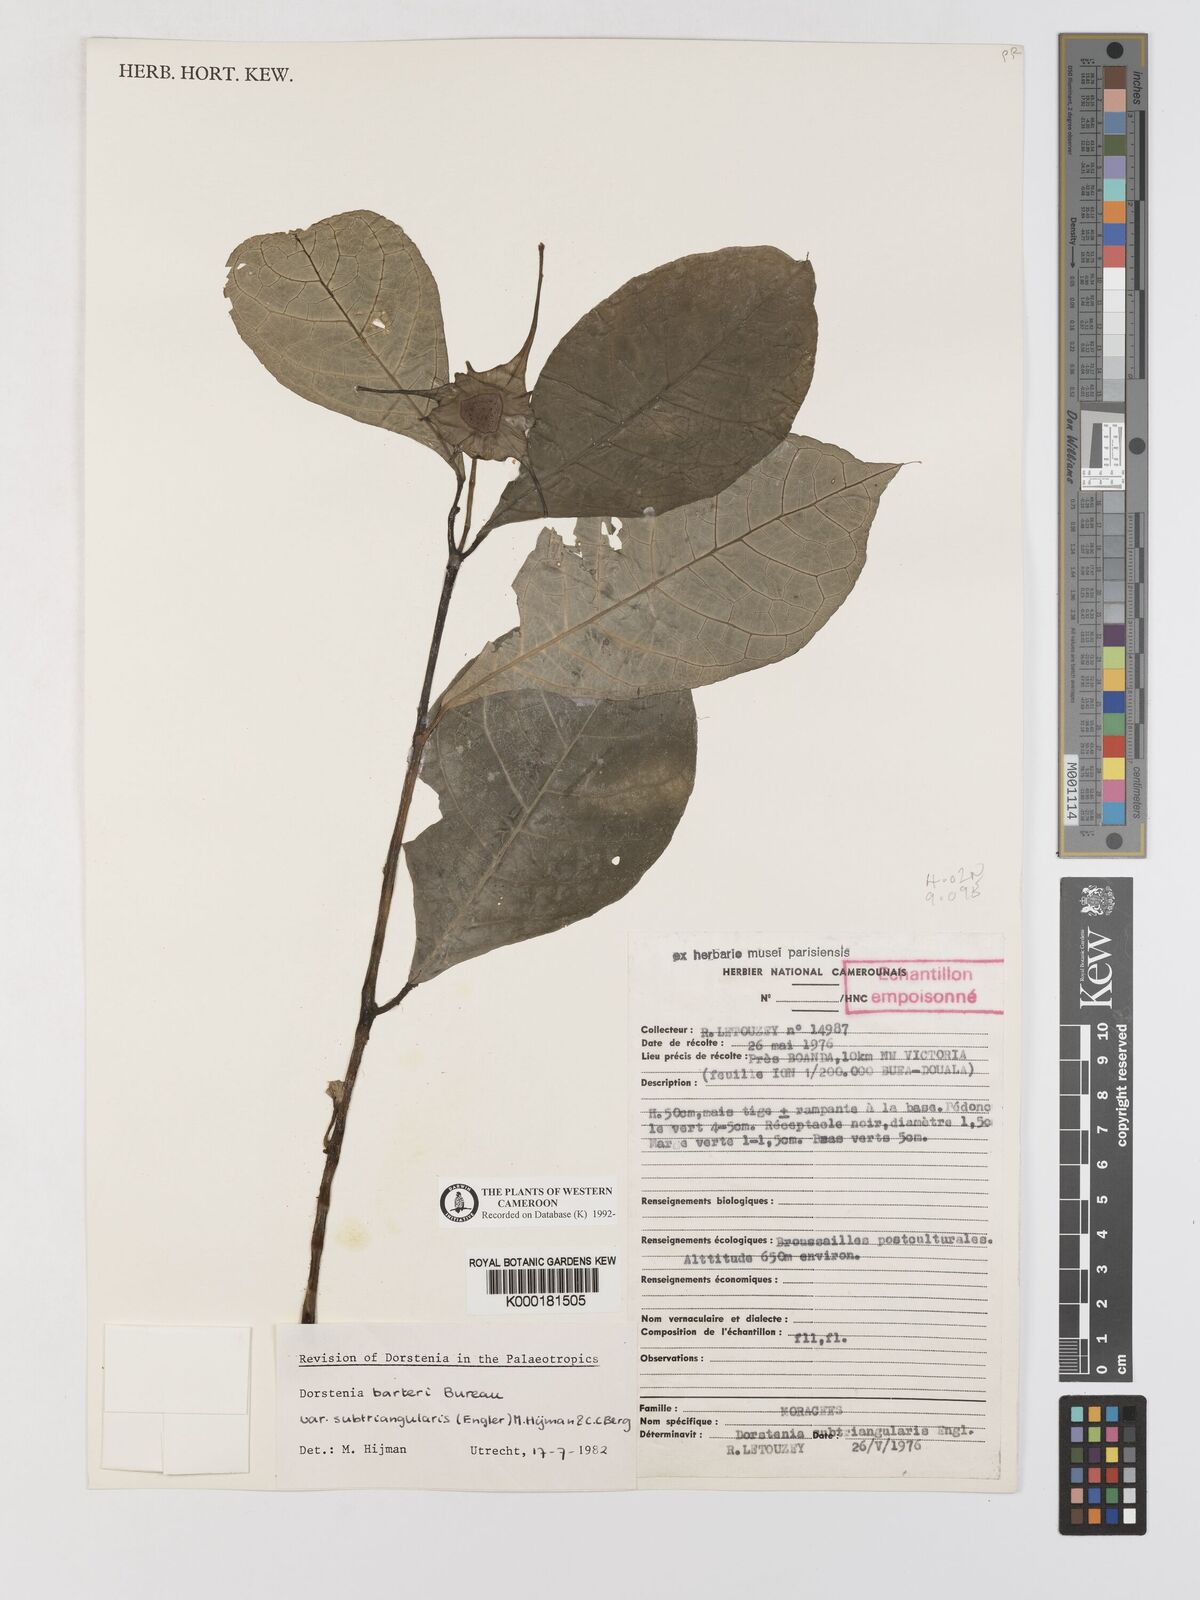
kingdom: Plantae
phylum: Tracheophyta
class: Magnoliopsida
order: Rosales
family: Moraceae
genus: Dorstenia
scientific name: Dorstenia barteri
